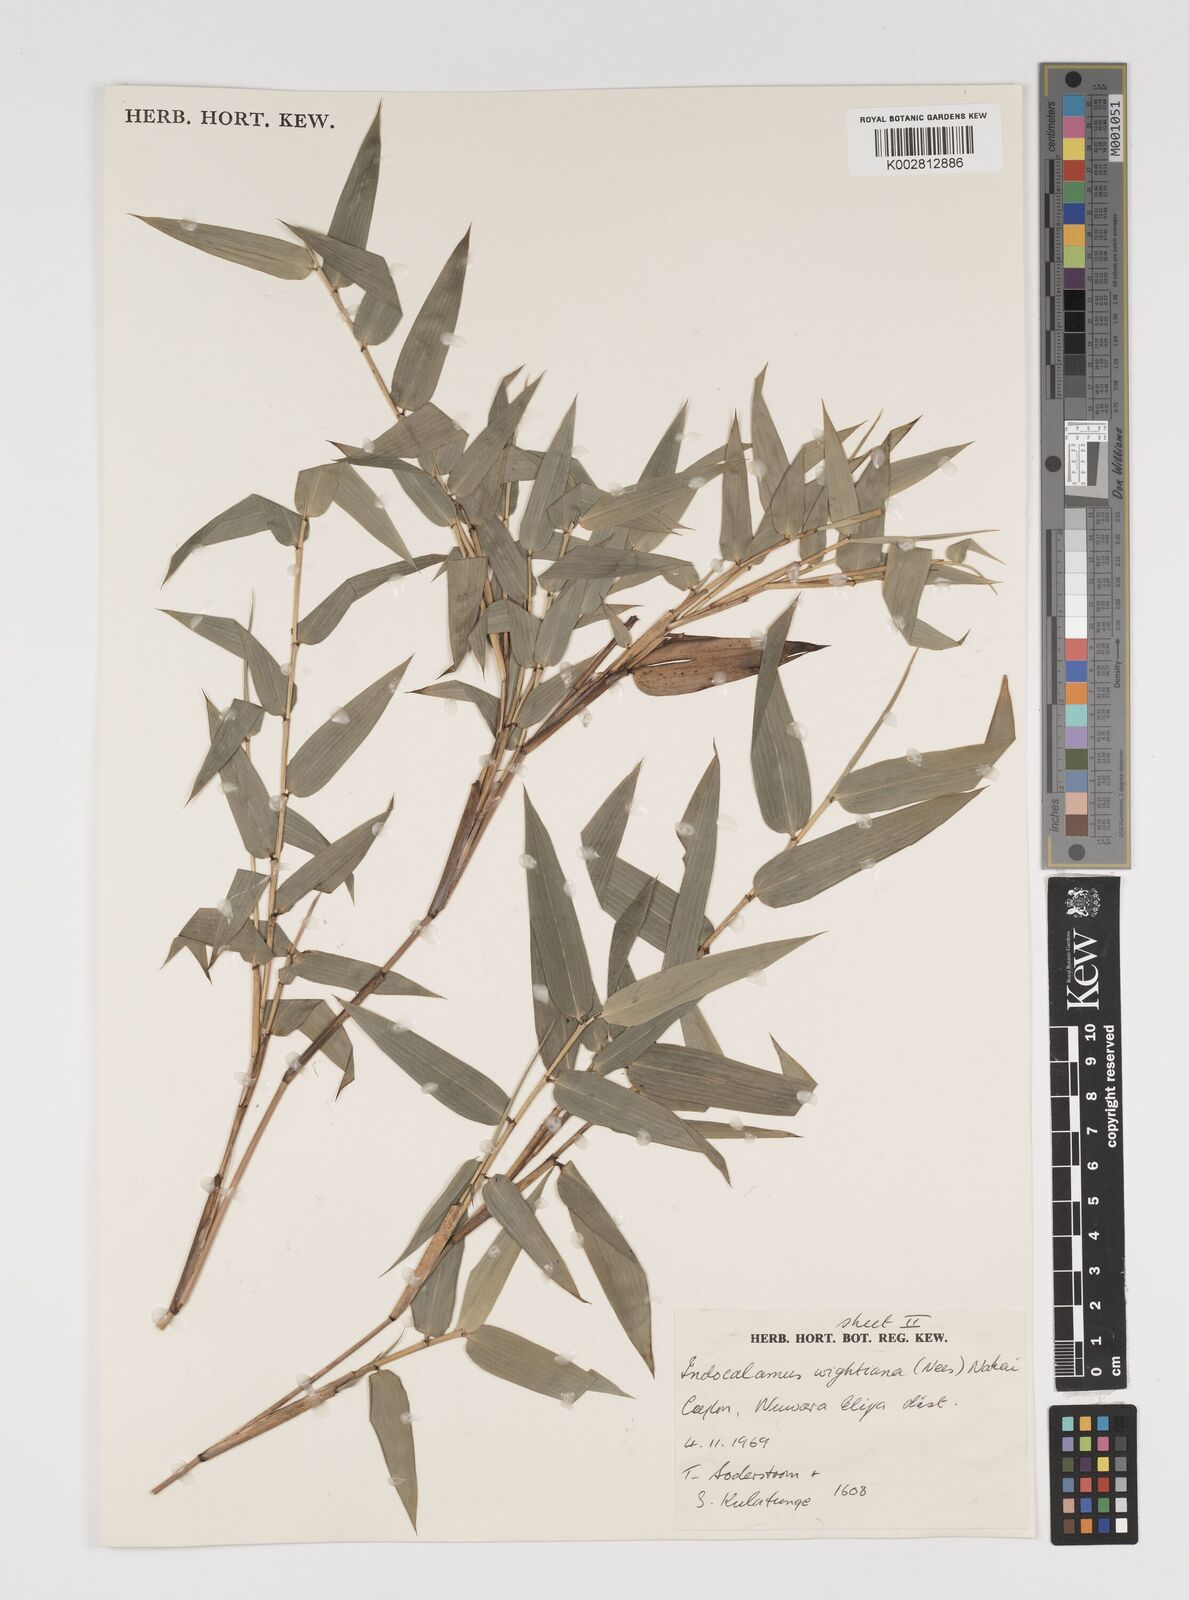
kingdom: Plantae
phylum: Tracheophyta
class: Liliopsida
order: Poales
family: Poaceae
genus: Kuruna
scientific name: Kuruna scandens
